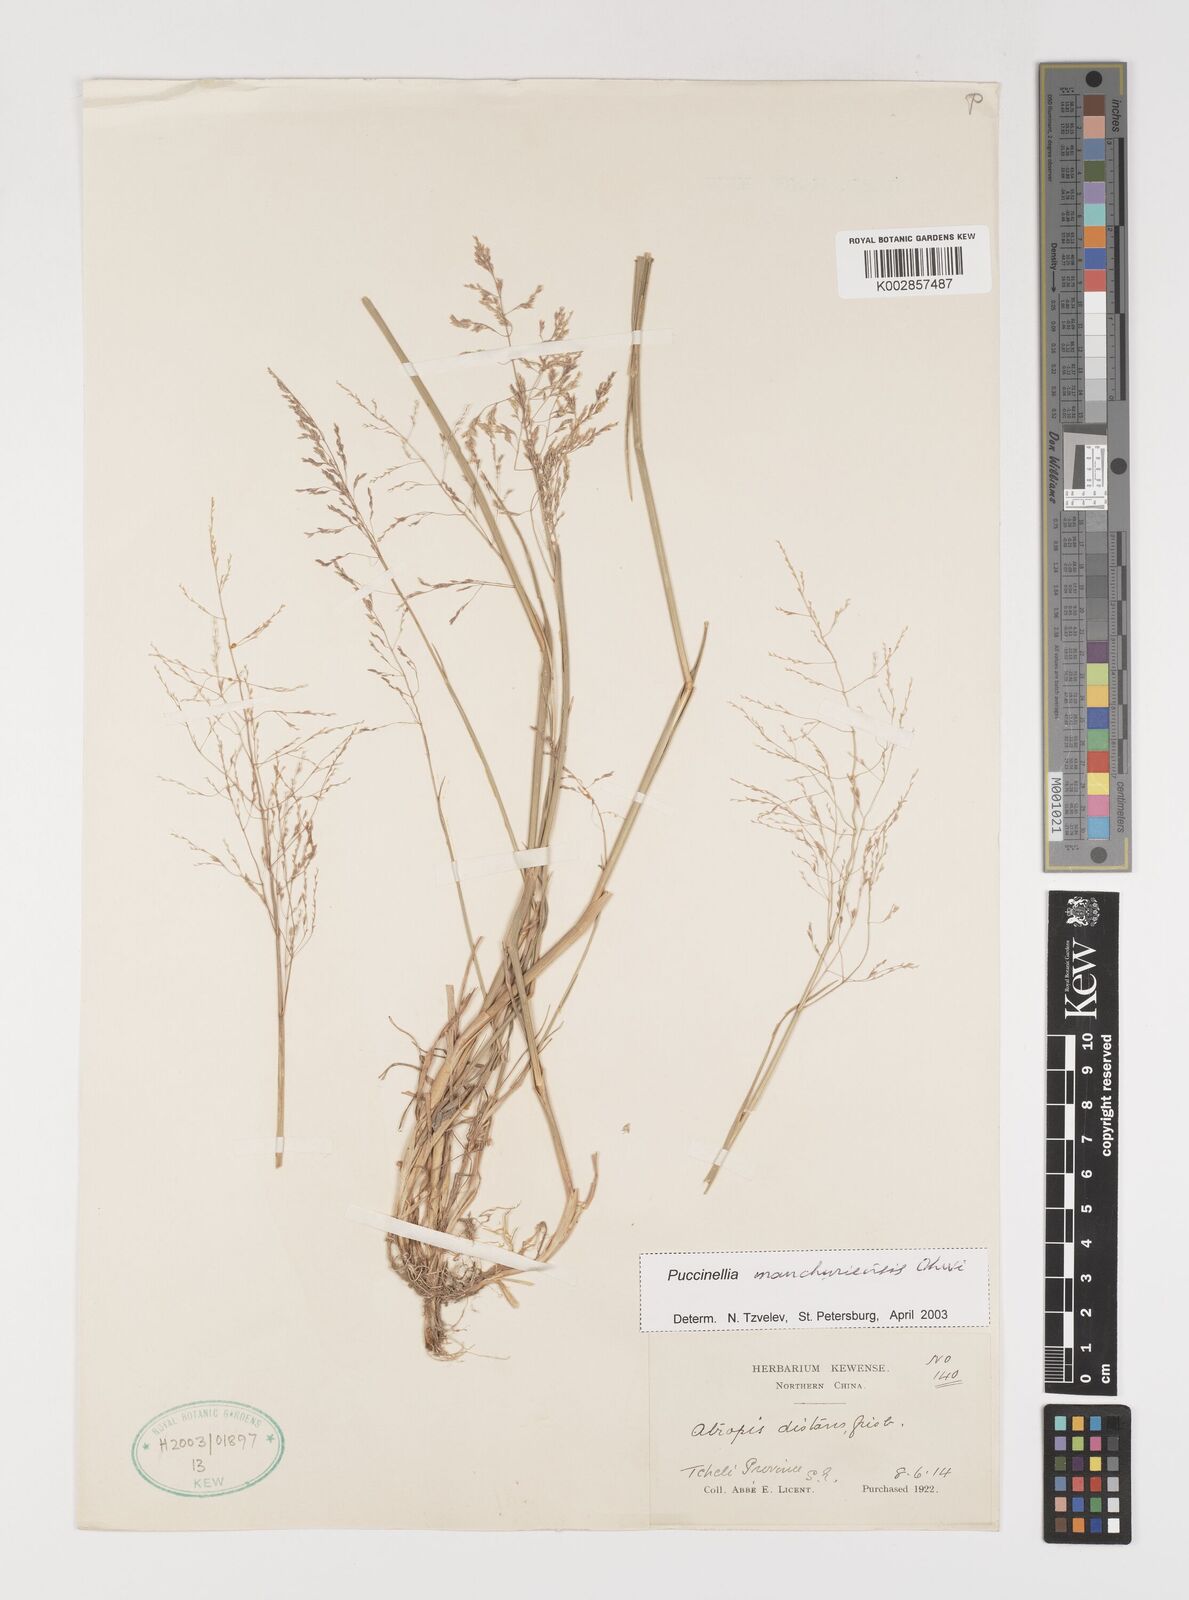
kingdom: Plantae
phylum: Tracheophyta
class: Liliopsida
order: Poales
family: Poaceae
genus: Puccinellia
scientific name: Puccinellia manchuriensis
